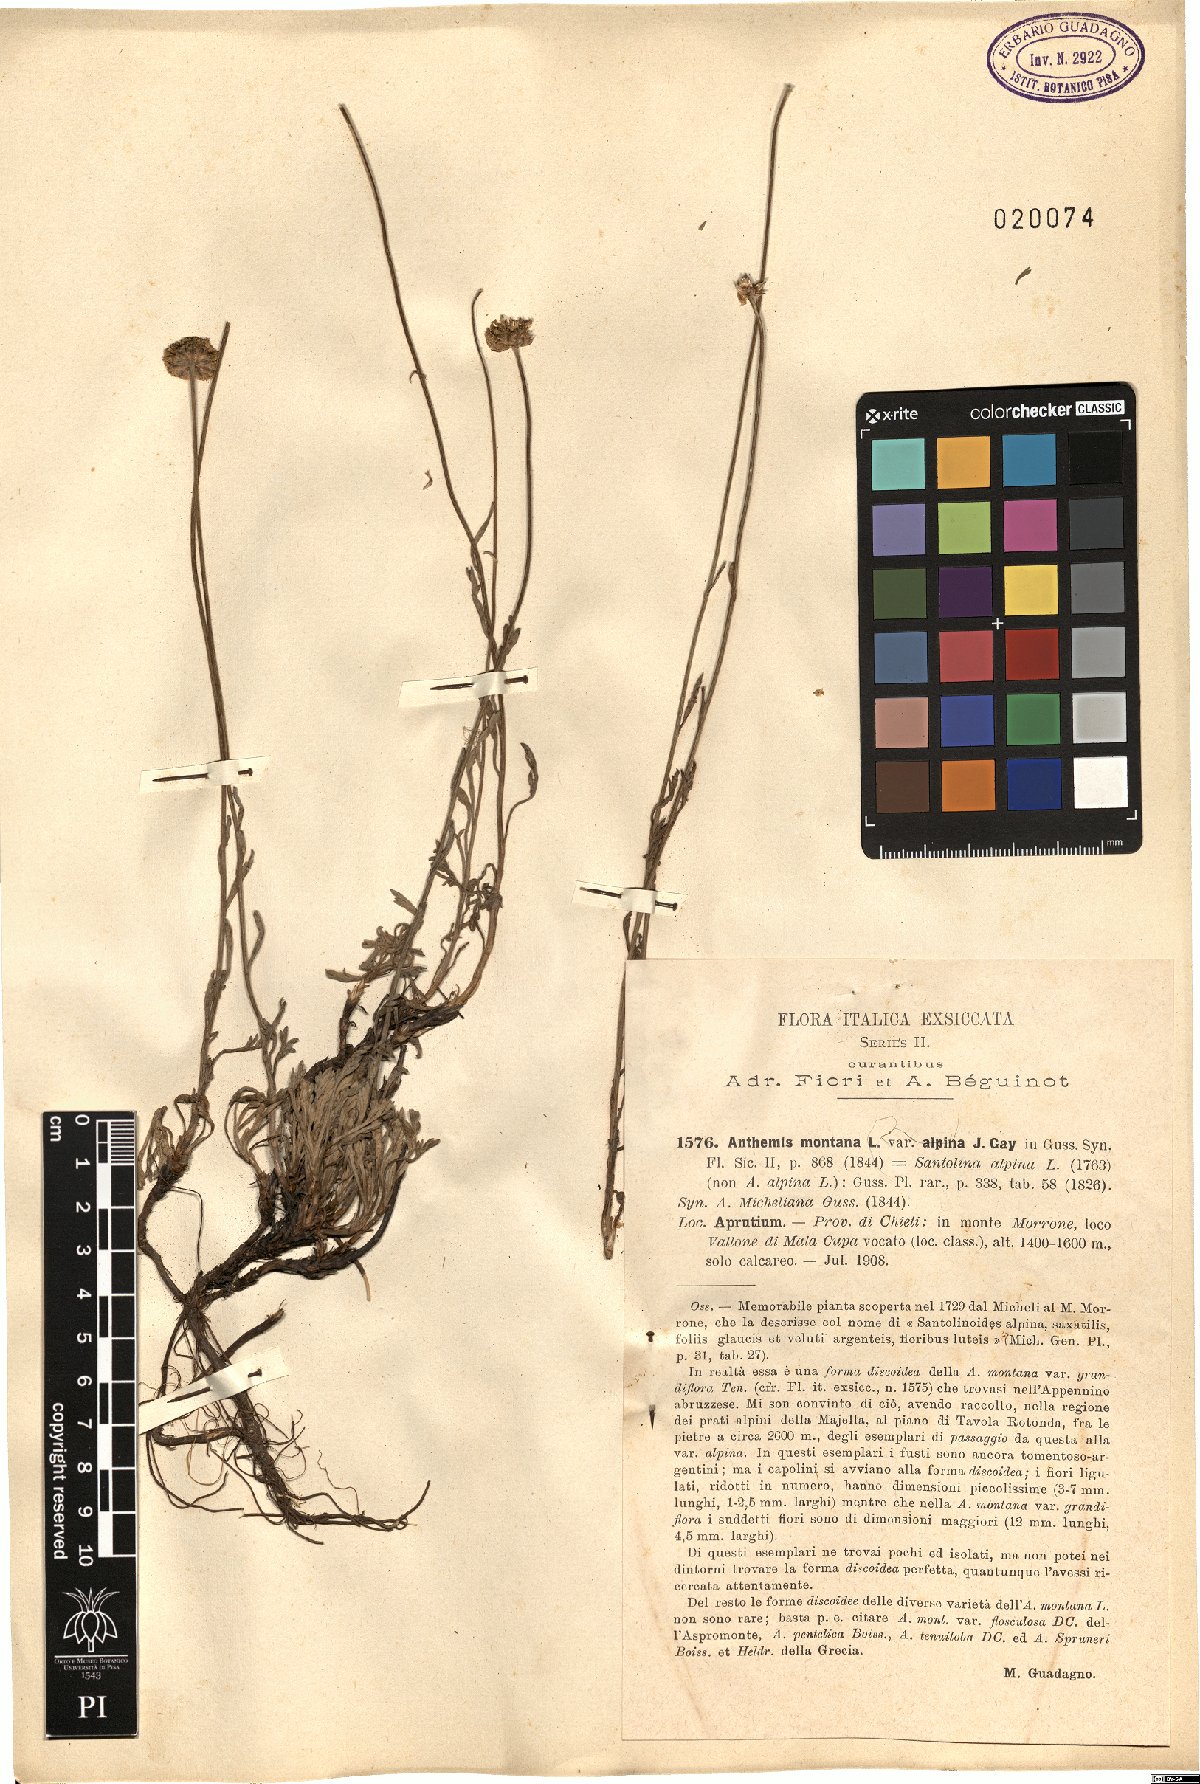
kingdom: Plantae
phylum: Tracheophyta
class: Magnoliopsida
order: Asterales
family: Asteraceae
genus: Anthemis
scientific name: Anthemis cretica
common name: Mountain dog-daisy
